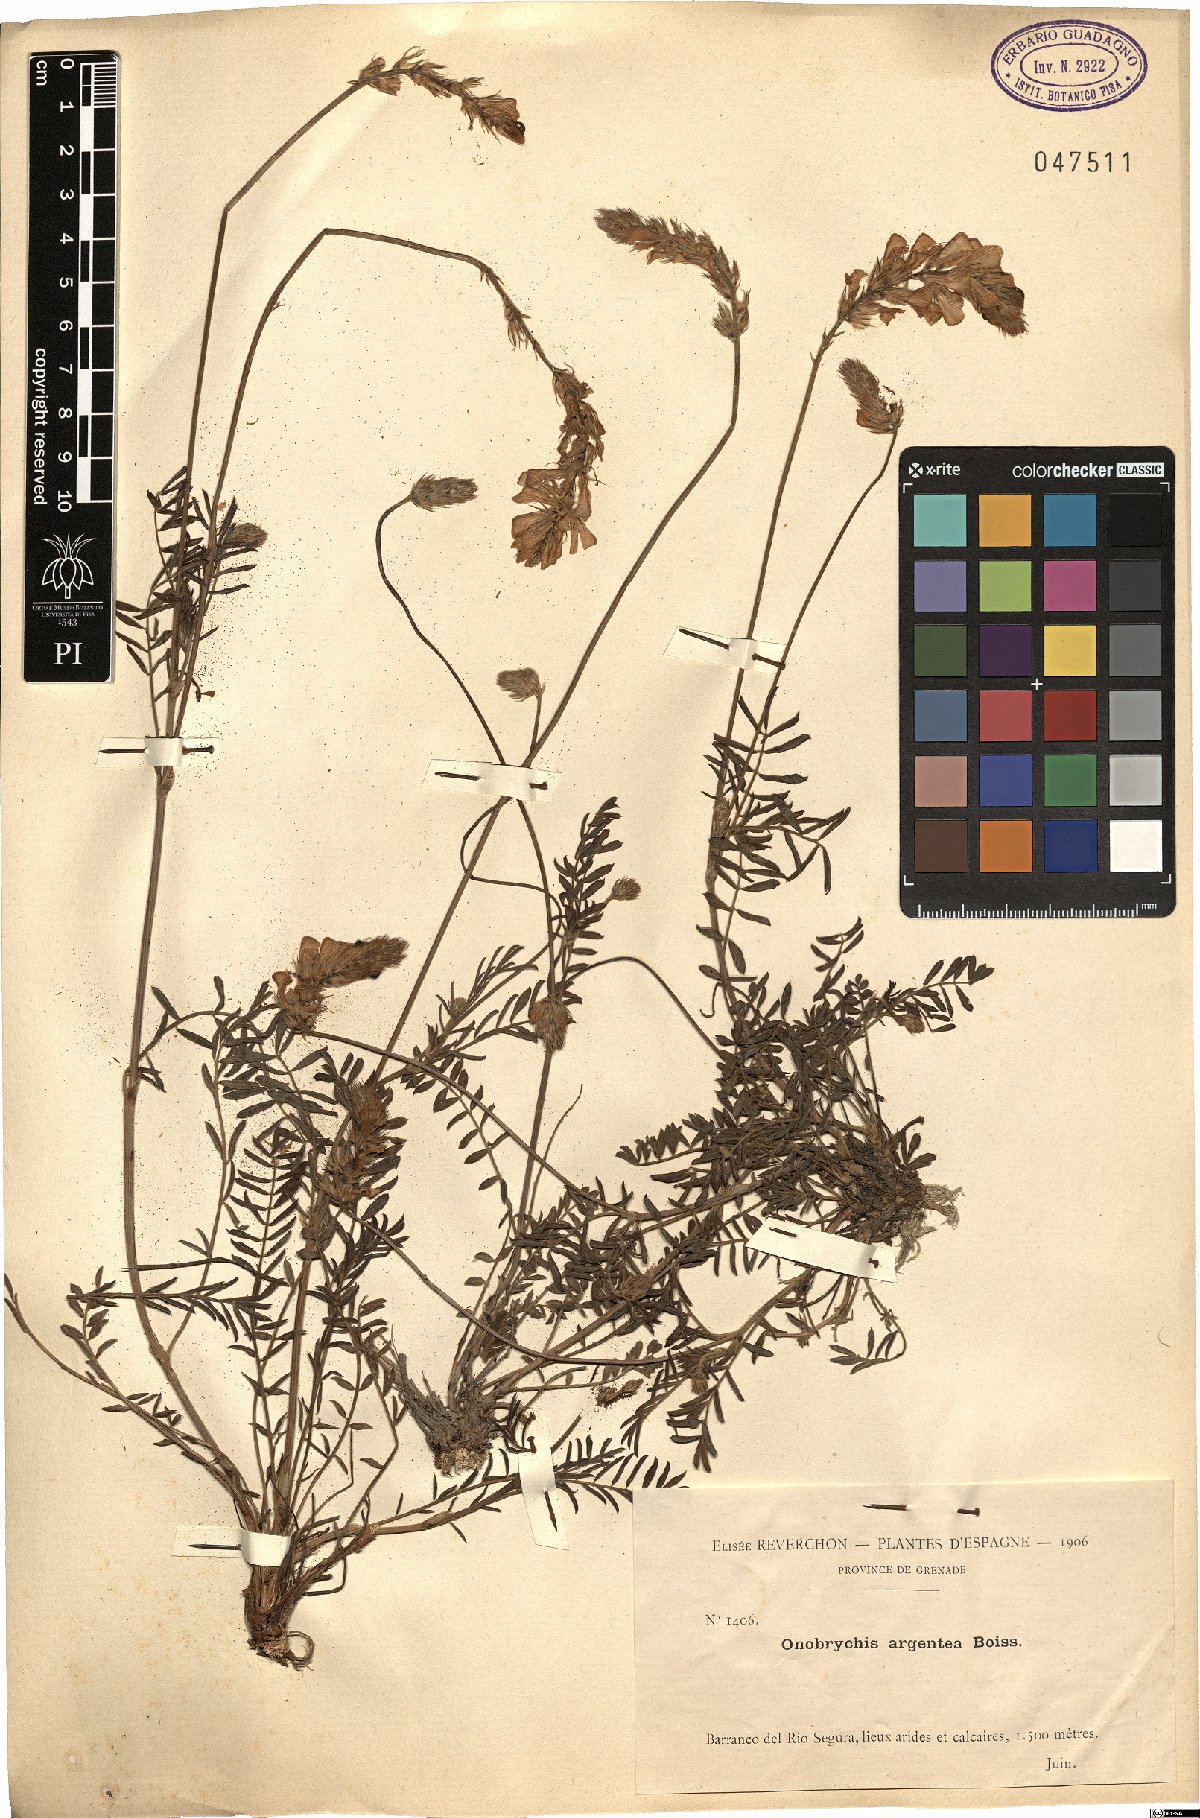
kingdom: Plantae
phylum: Tracheophyta
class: Magnoliopsida
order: Fabales
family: Fabaceae
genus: Onobrychis
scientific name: Onobrychis argentea
